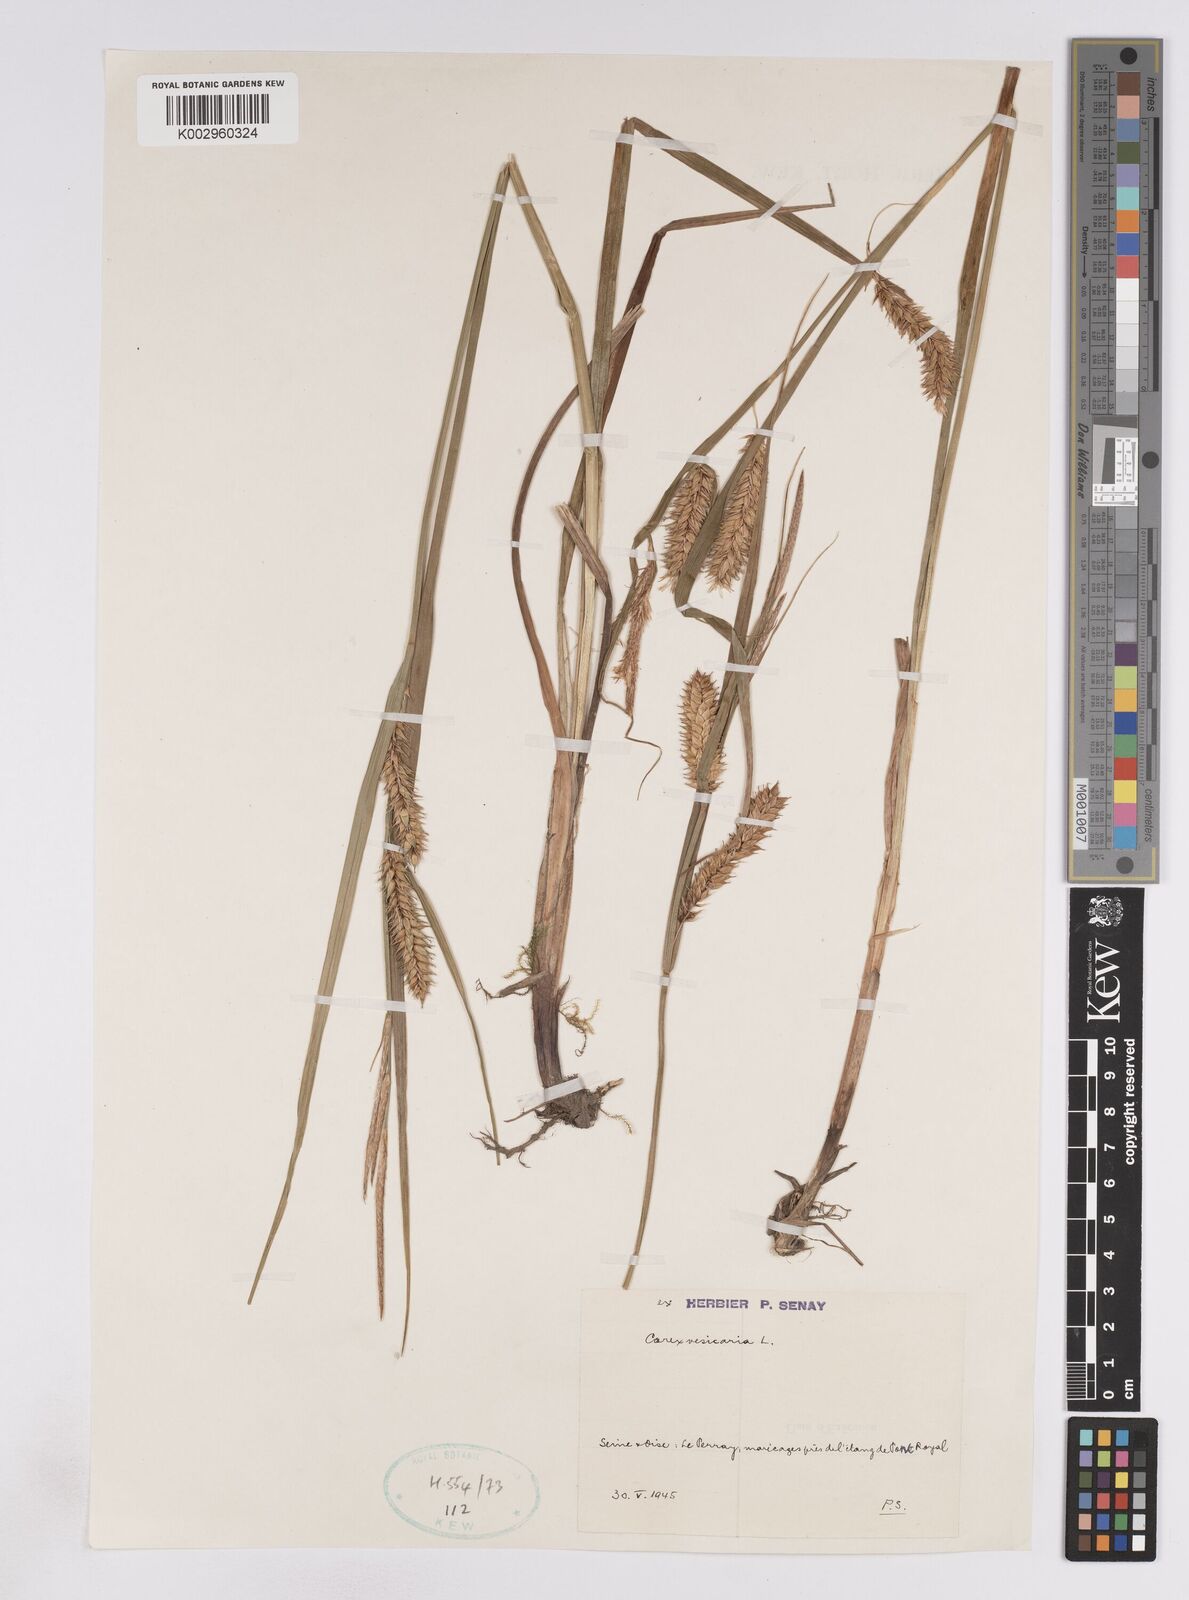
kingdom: Plantae
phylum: Tracheophyta
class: Liliopsida
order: Poales
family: Cyperaceae
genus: Carex
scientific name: Carex vesicaria
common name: Bladder-sedge
